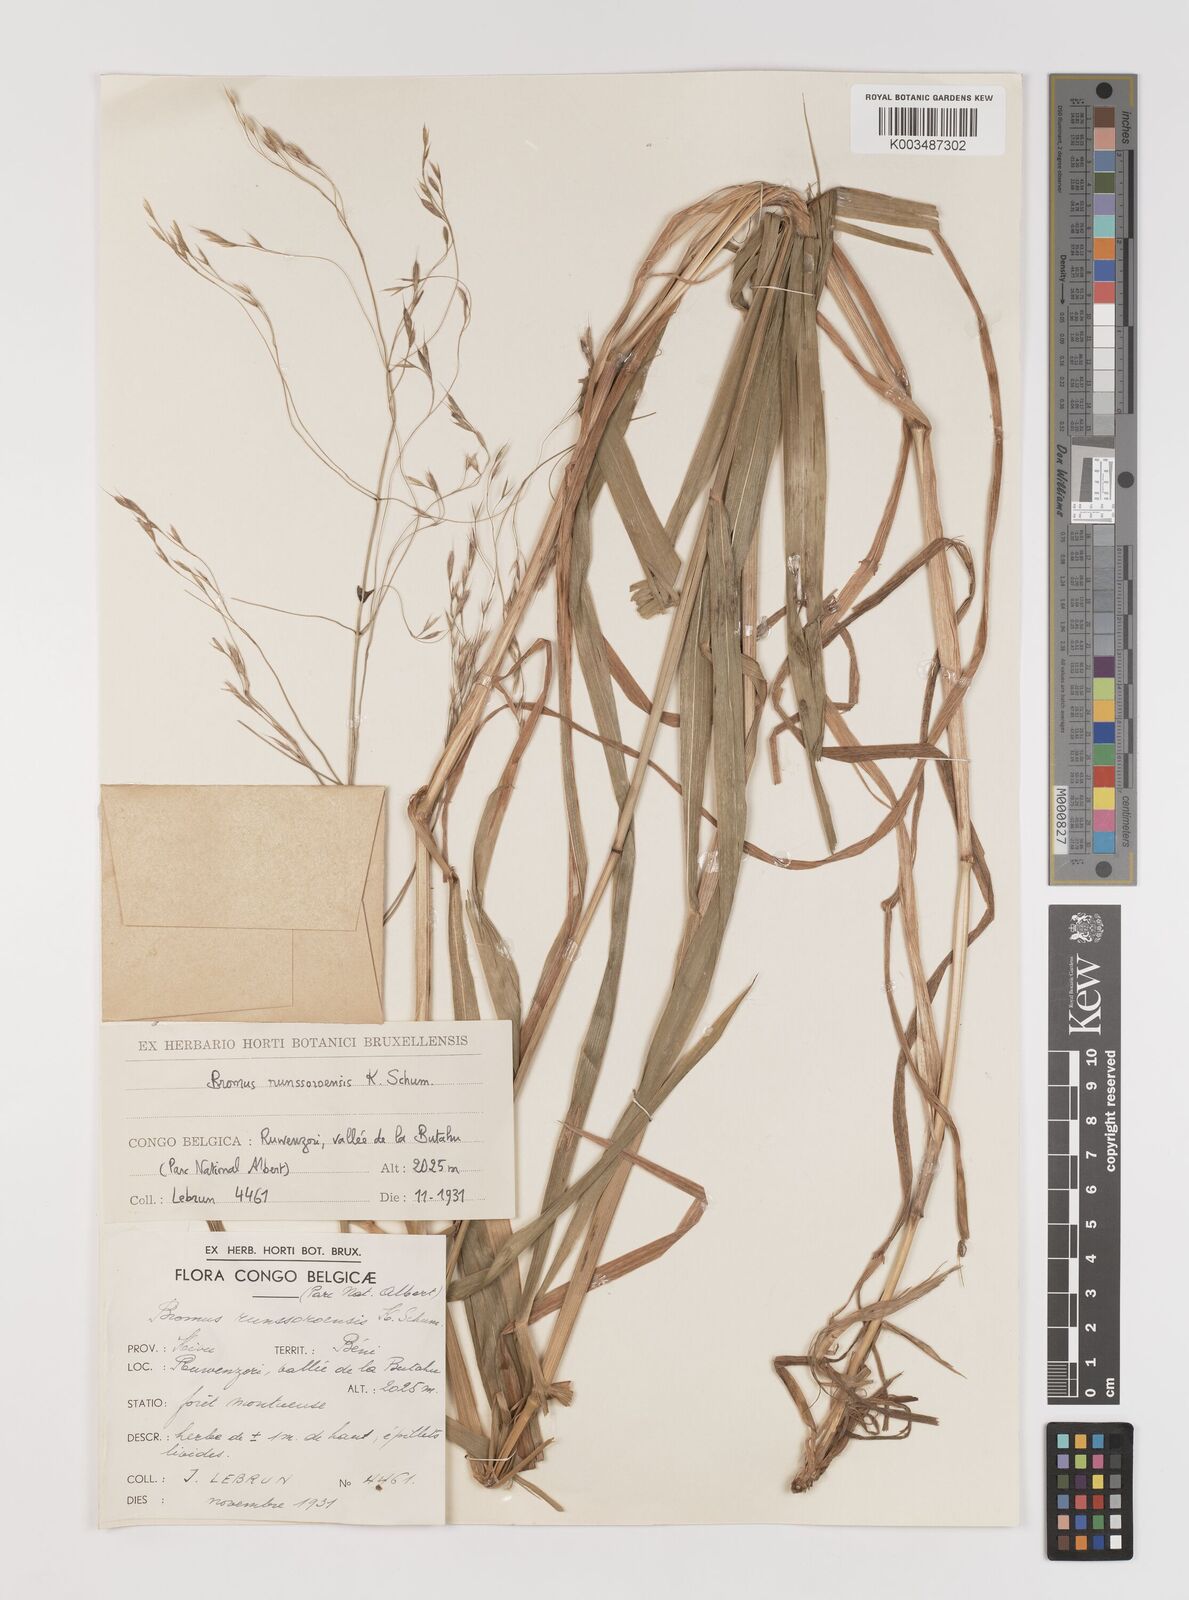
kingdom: Plantae
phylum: Tracheophyta
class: Liliopsida
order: Poales
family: Poaceae
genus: Bromus
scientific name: Bromus leptoclados
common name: Mountain bromegrass
